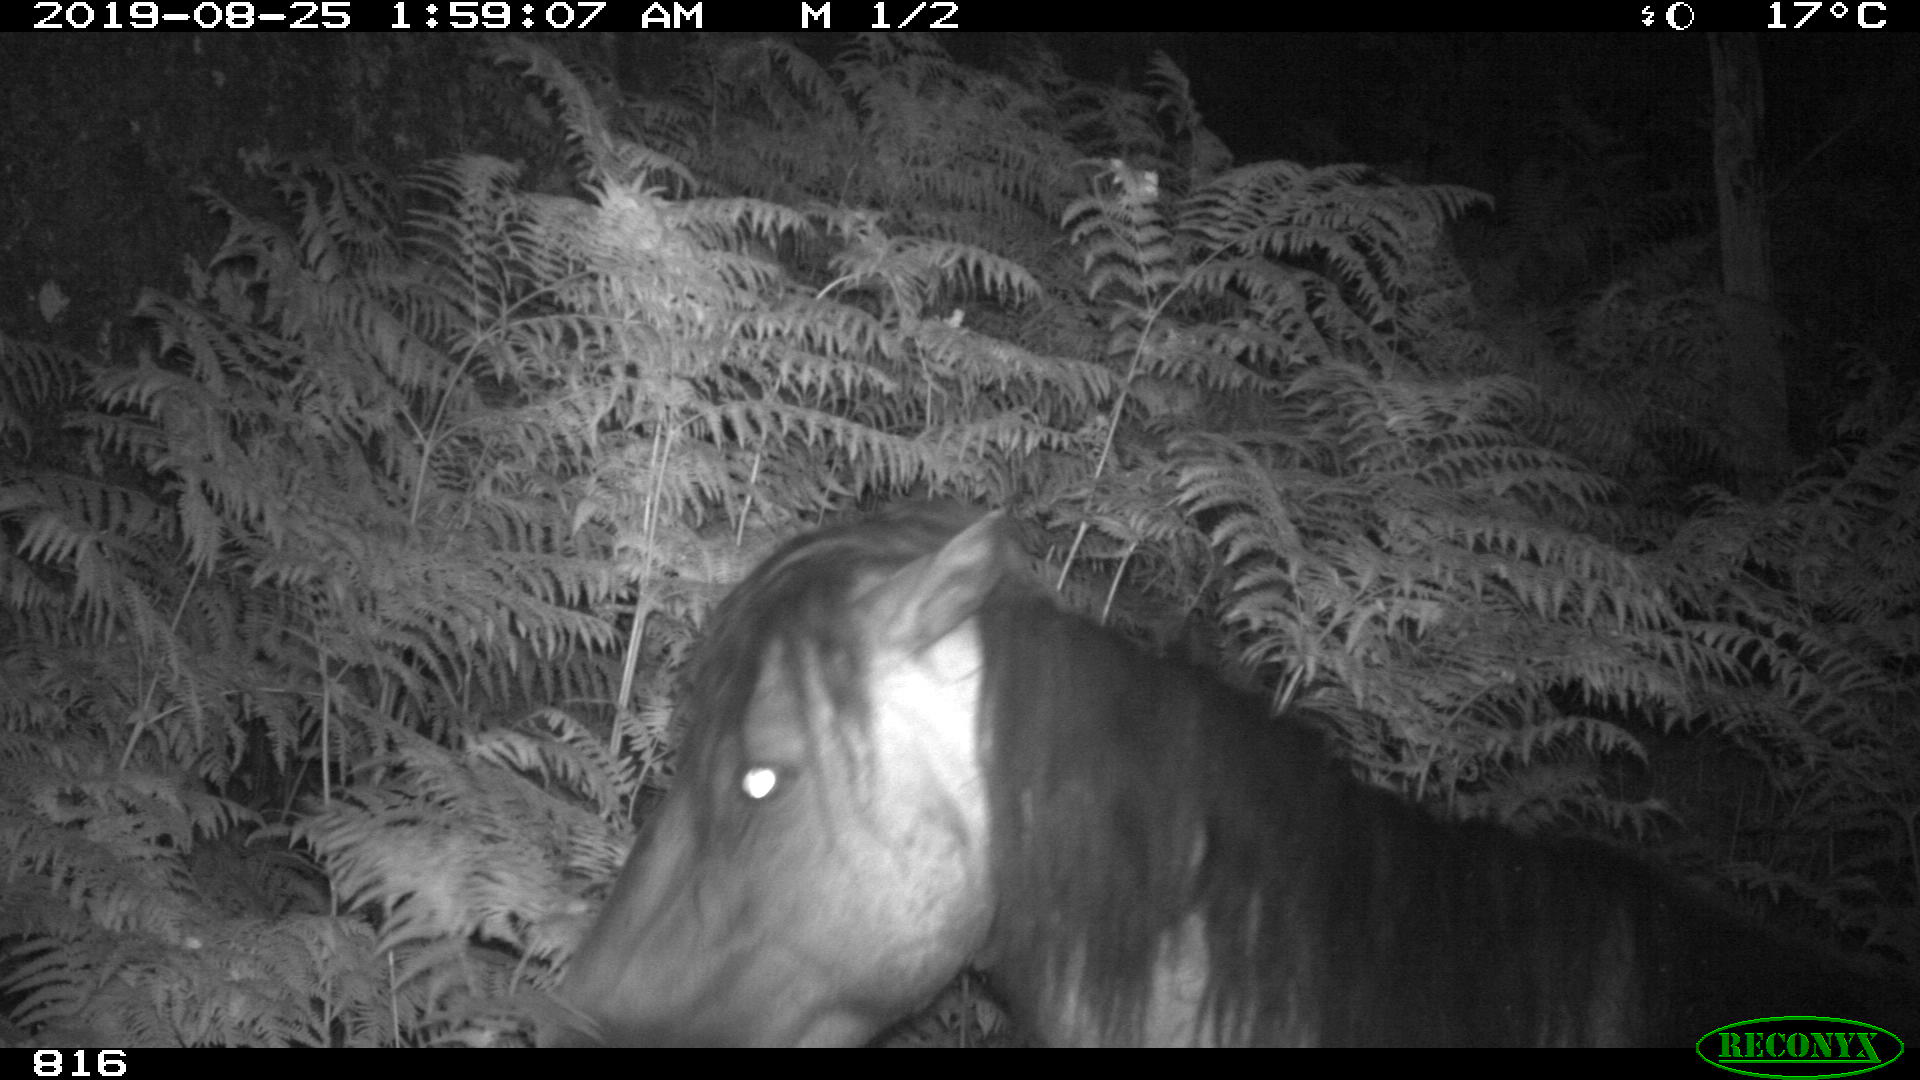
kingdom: Animalia
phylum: Chordata
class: Mammalia
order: Perissodactyla
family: Equidae
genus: Equus
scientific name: Equus caballus
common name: Horse
